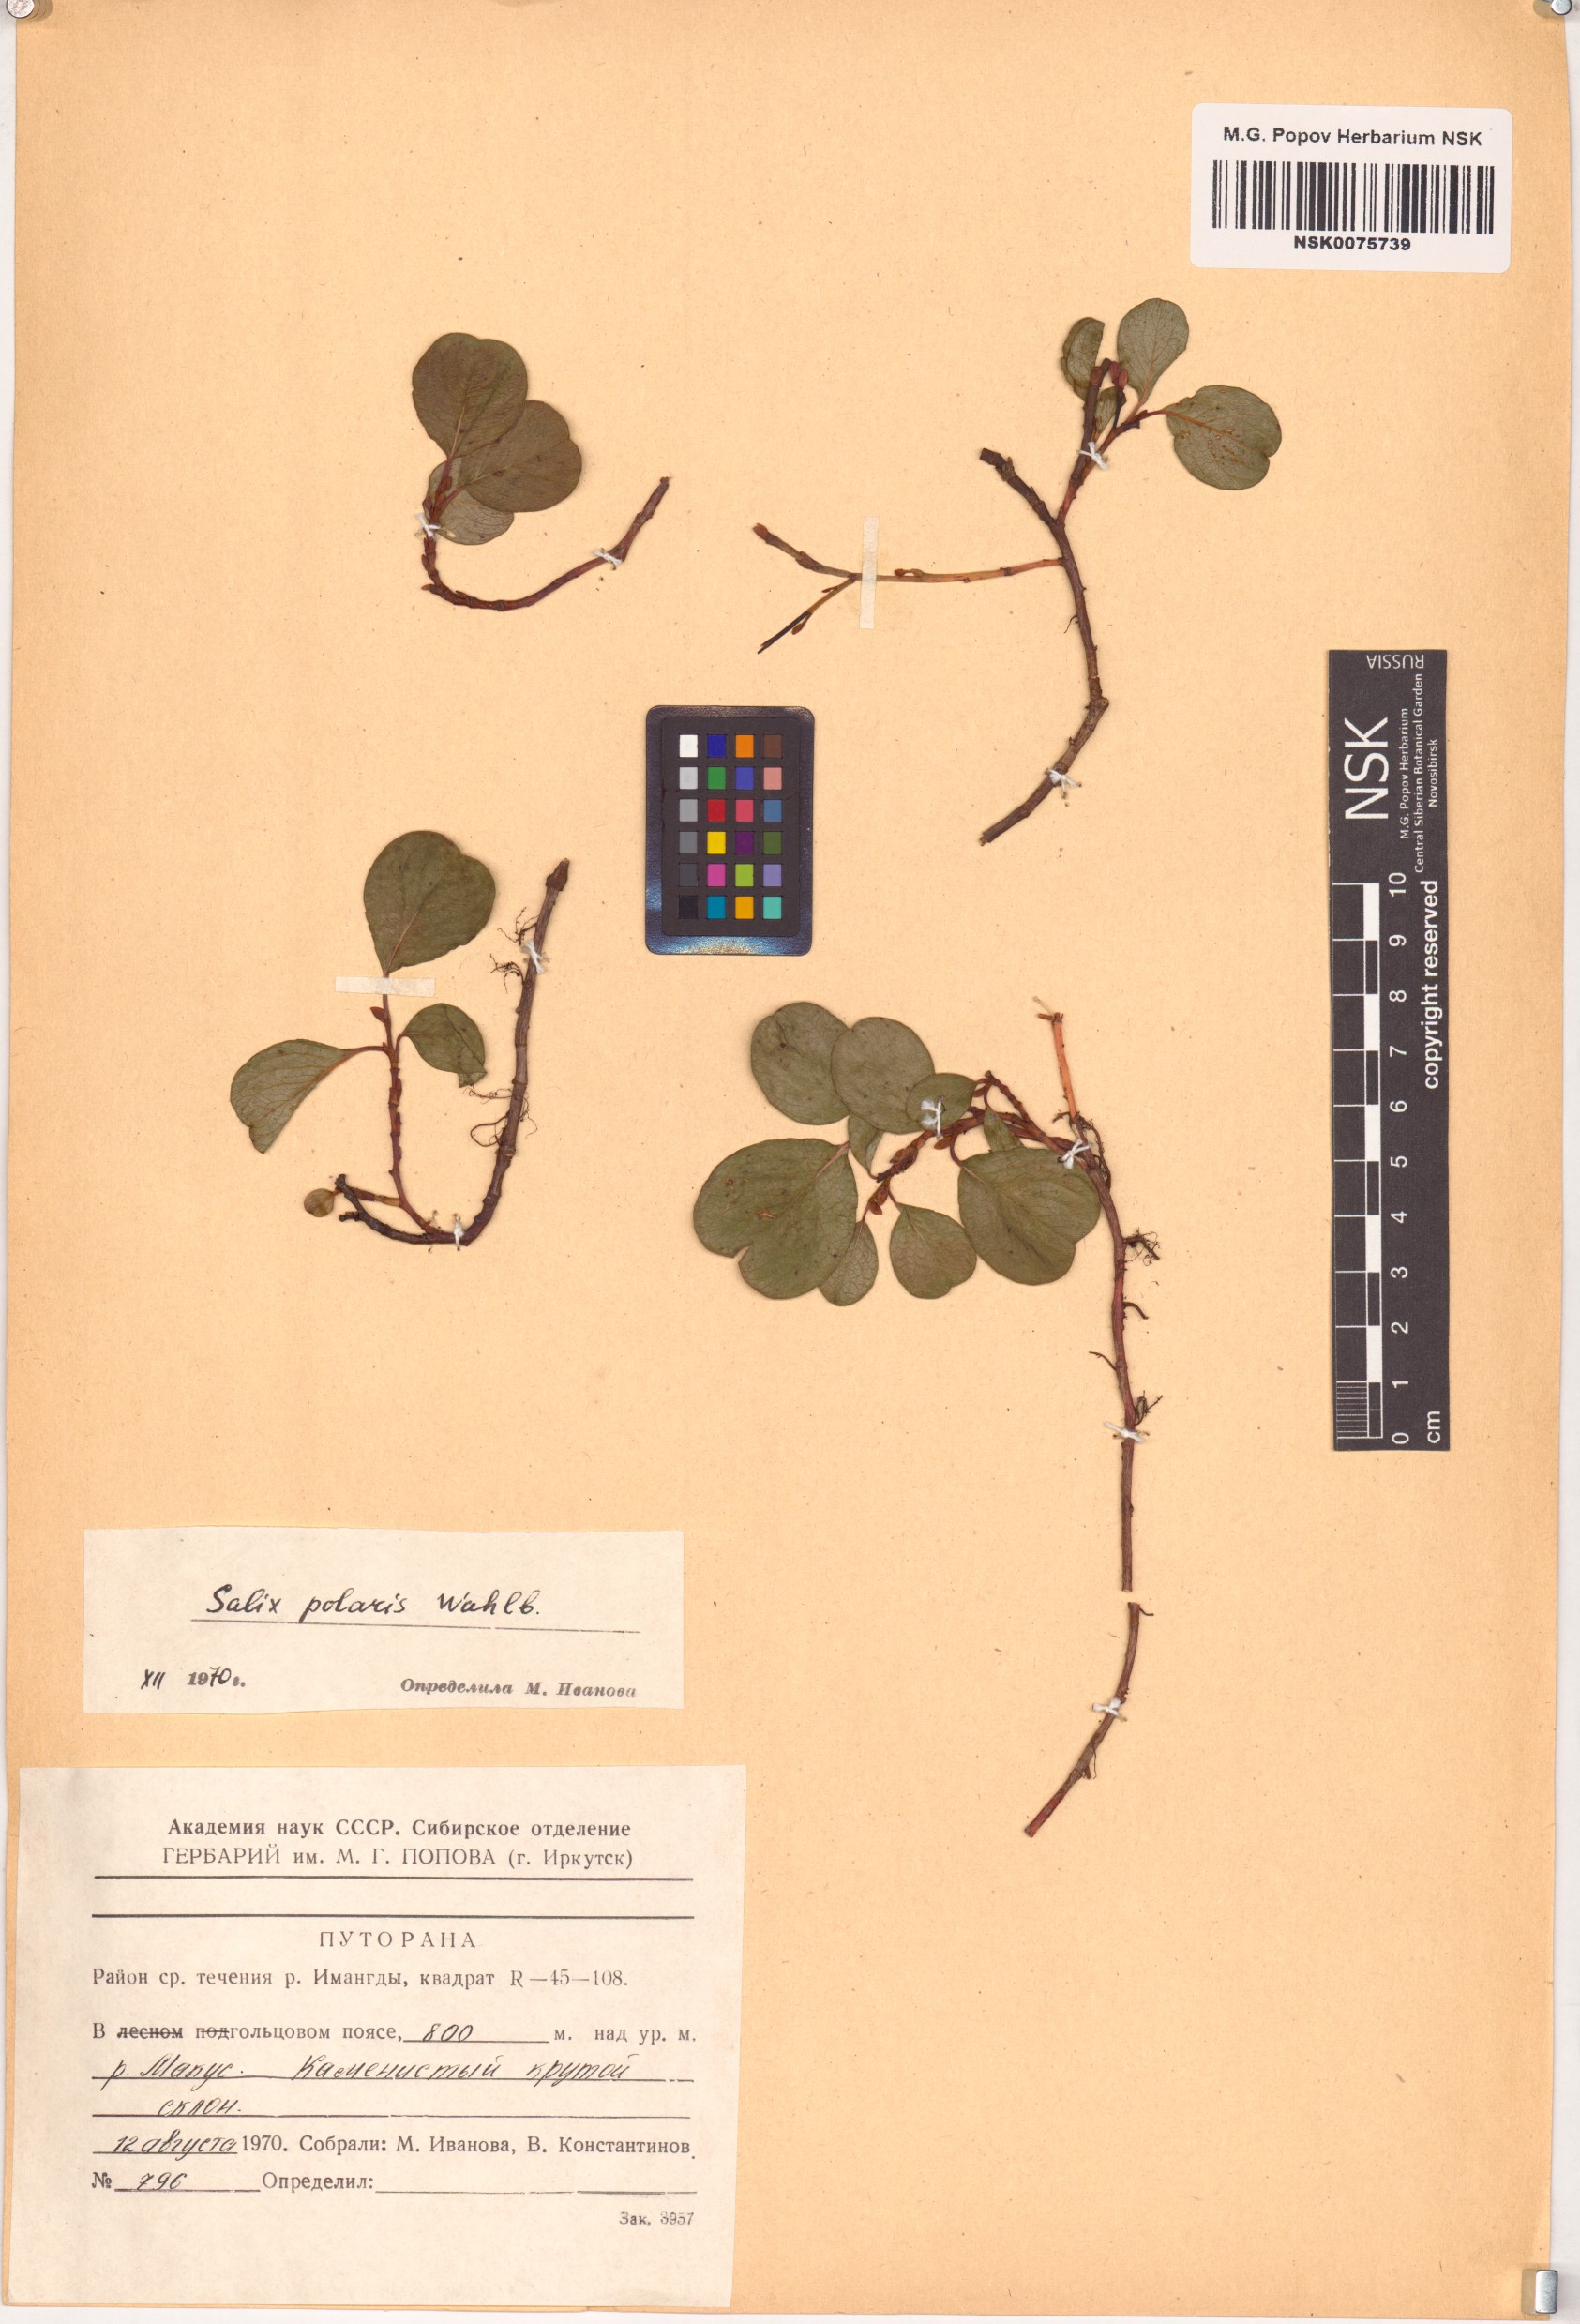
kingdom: Plantae
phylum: Tracheophyta
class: Magnoliopsida
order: Malpighiales
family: Salicaceae
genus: Salix
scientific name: Salix polaris
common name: Polar willow
